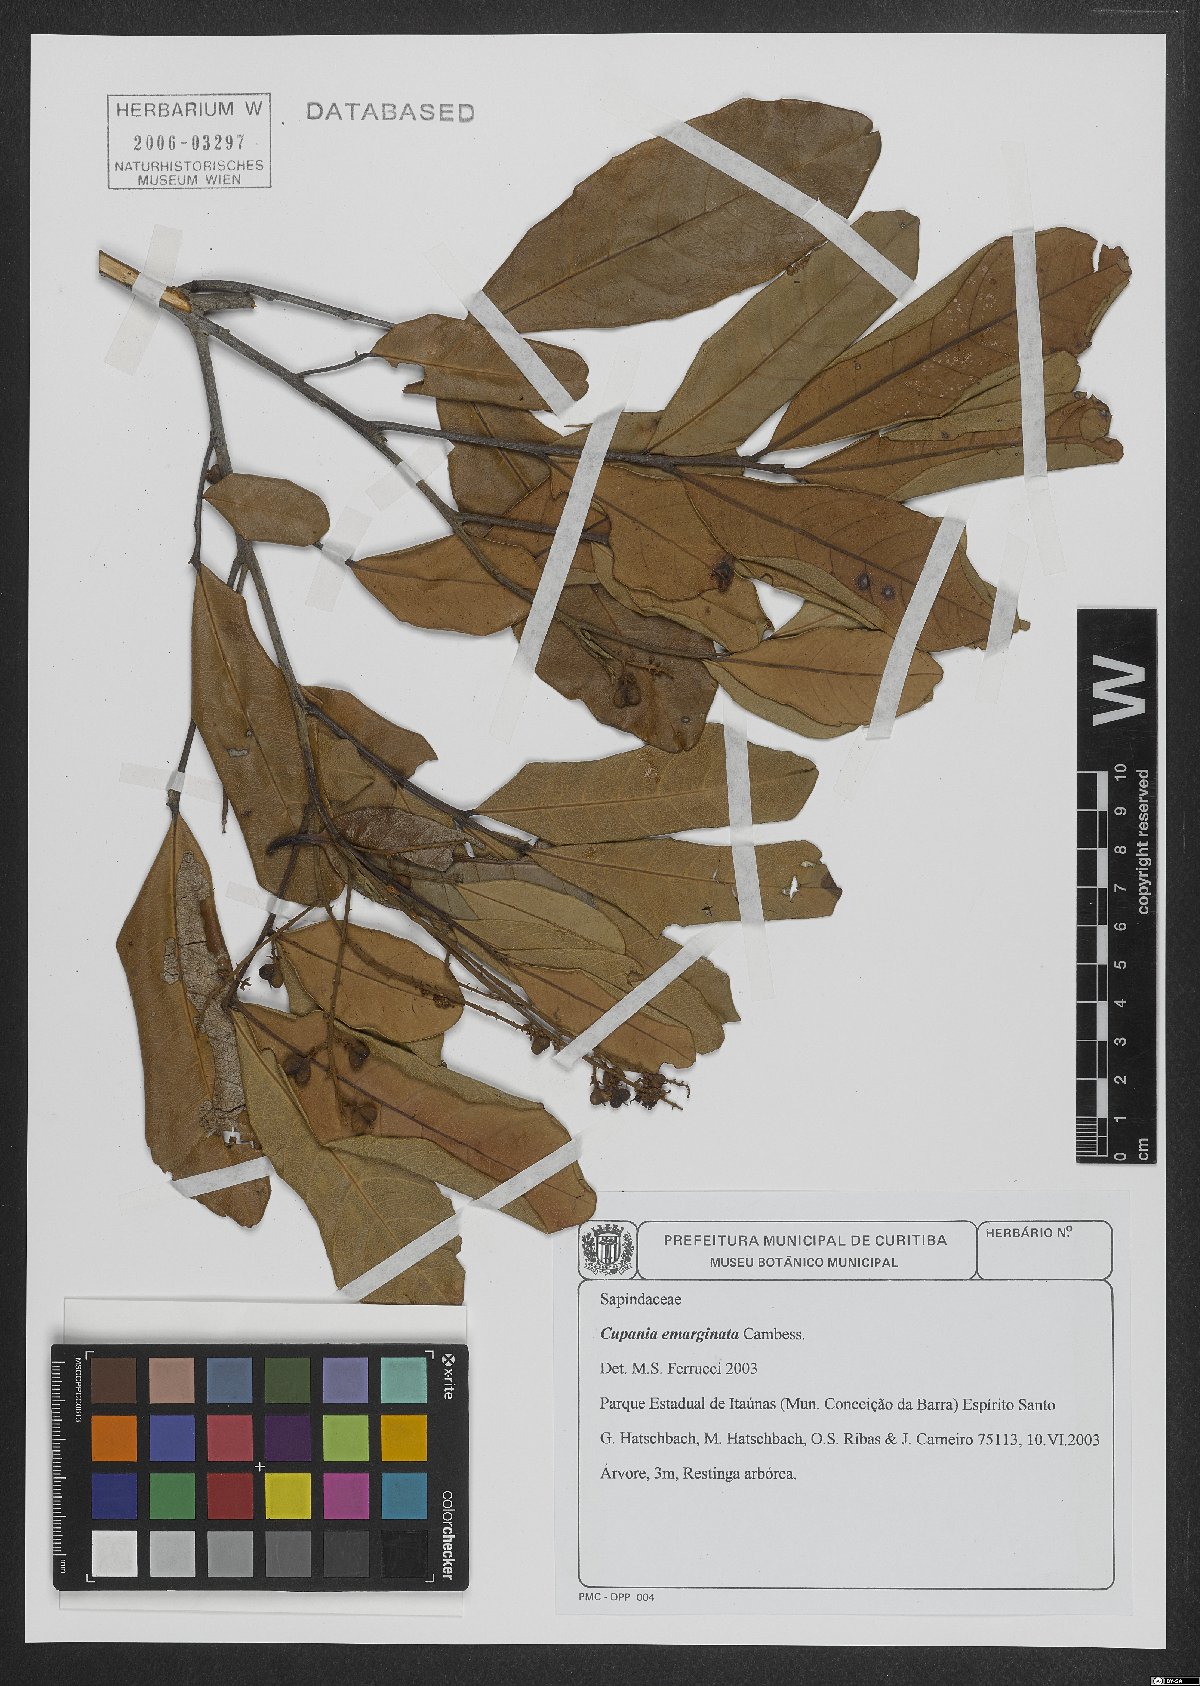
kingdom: Plantae
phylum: Tracheophyta
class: Magnoliopsida
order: Sapindales
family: Sapindaceae
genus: Cupania
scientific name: Cupania emarginata
